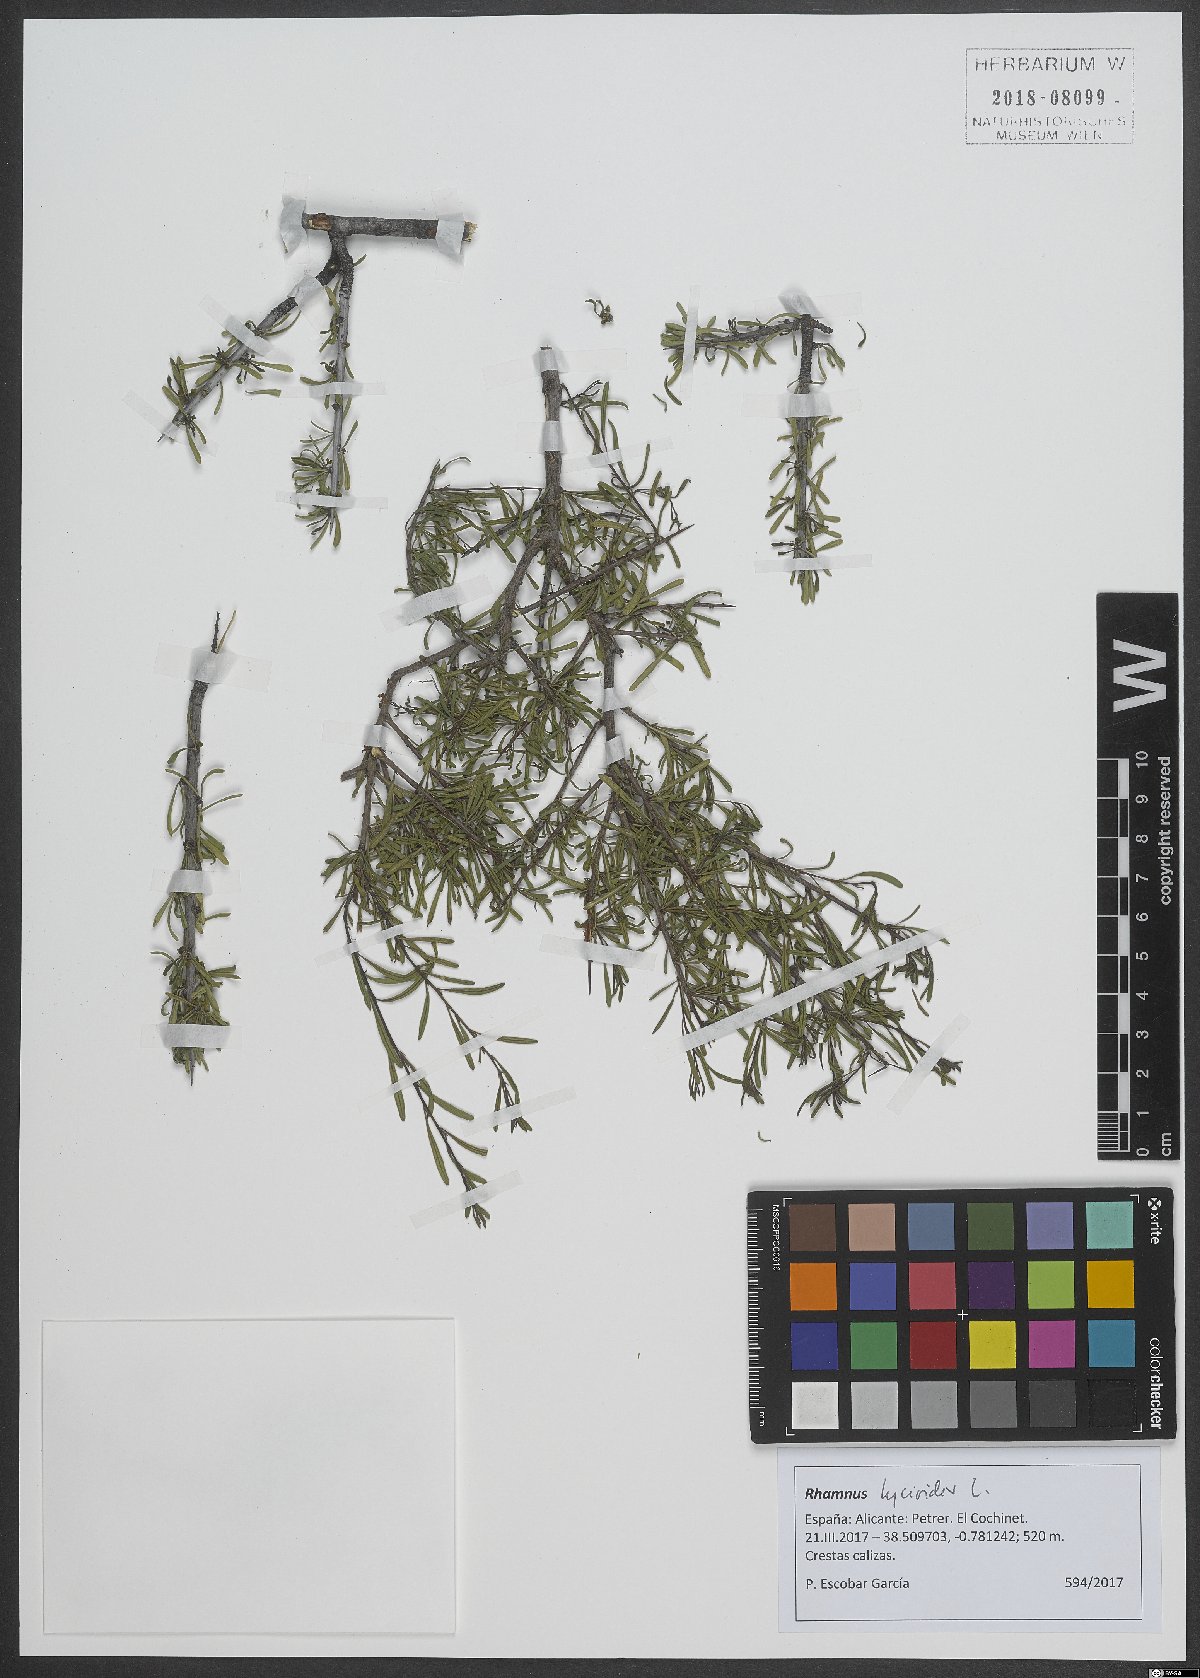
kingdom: Plantae
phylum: Tracheophyta
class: Magnoliopsida
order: Rosales
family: Rhamnaceae
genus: Rhamnus
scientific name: Rhamnus lycioides
